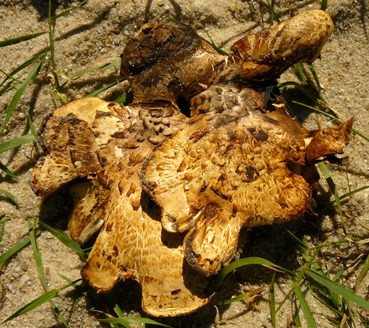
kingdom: Fungi
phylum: Basidiomycota
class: Agaricomycetes
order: Polyporales
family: Polyporaceae
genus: Cerioporus
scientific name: Cerioporus squamosus
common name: skællet stilkporesvamp
